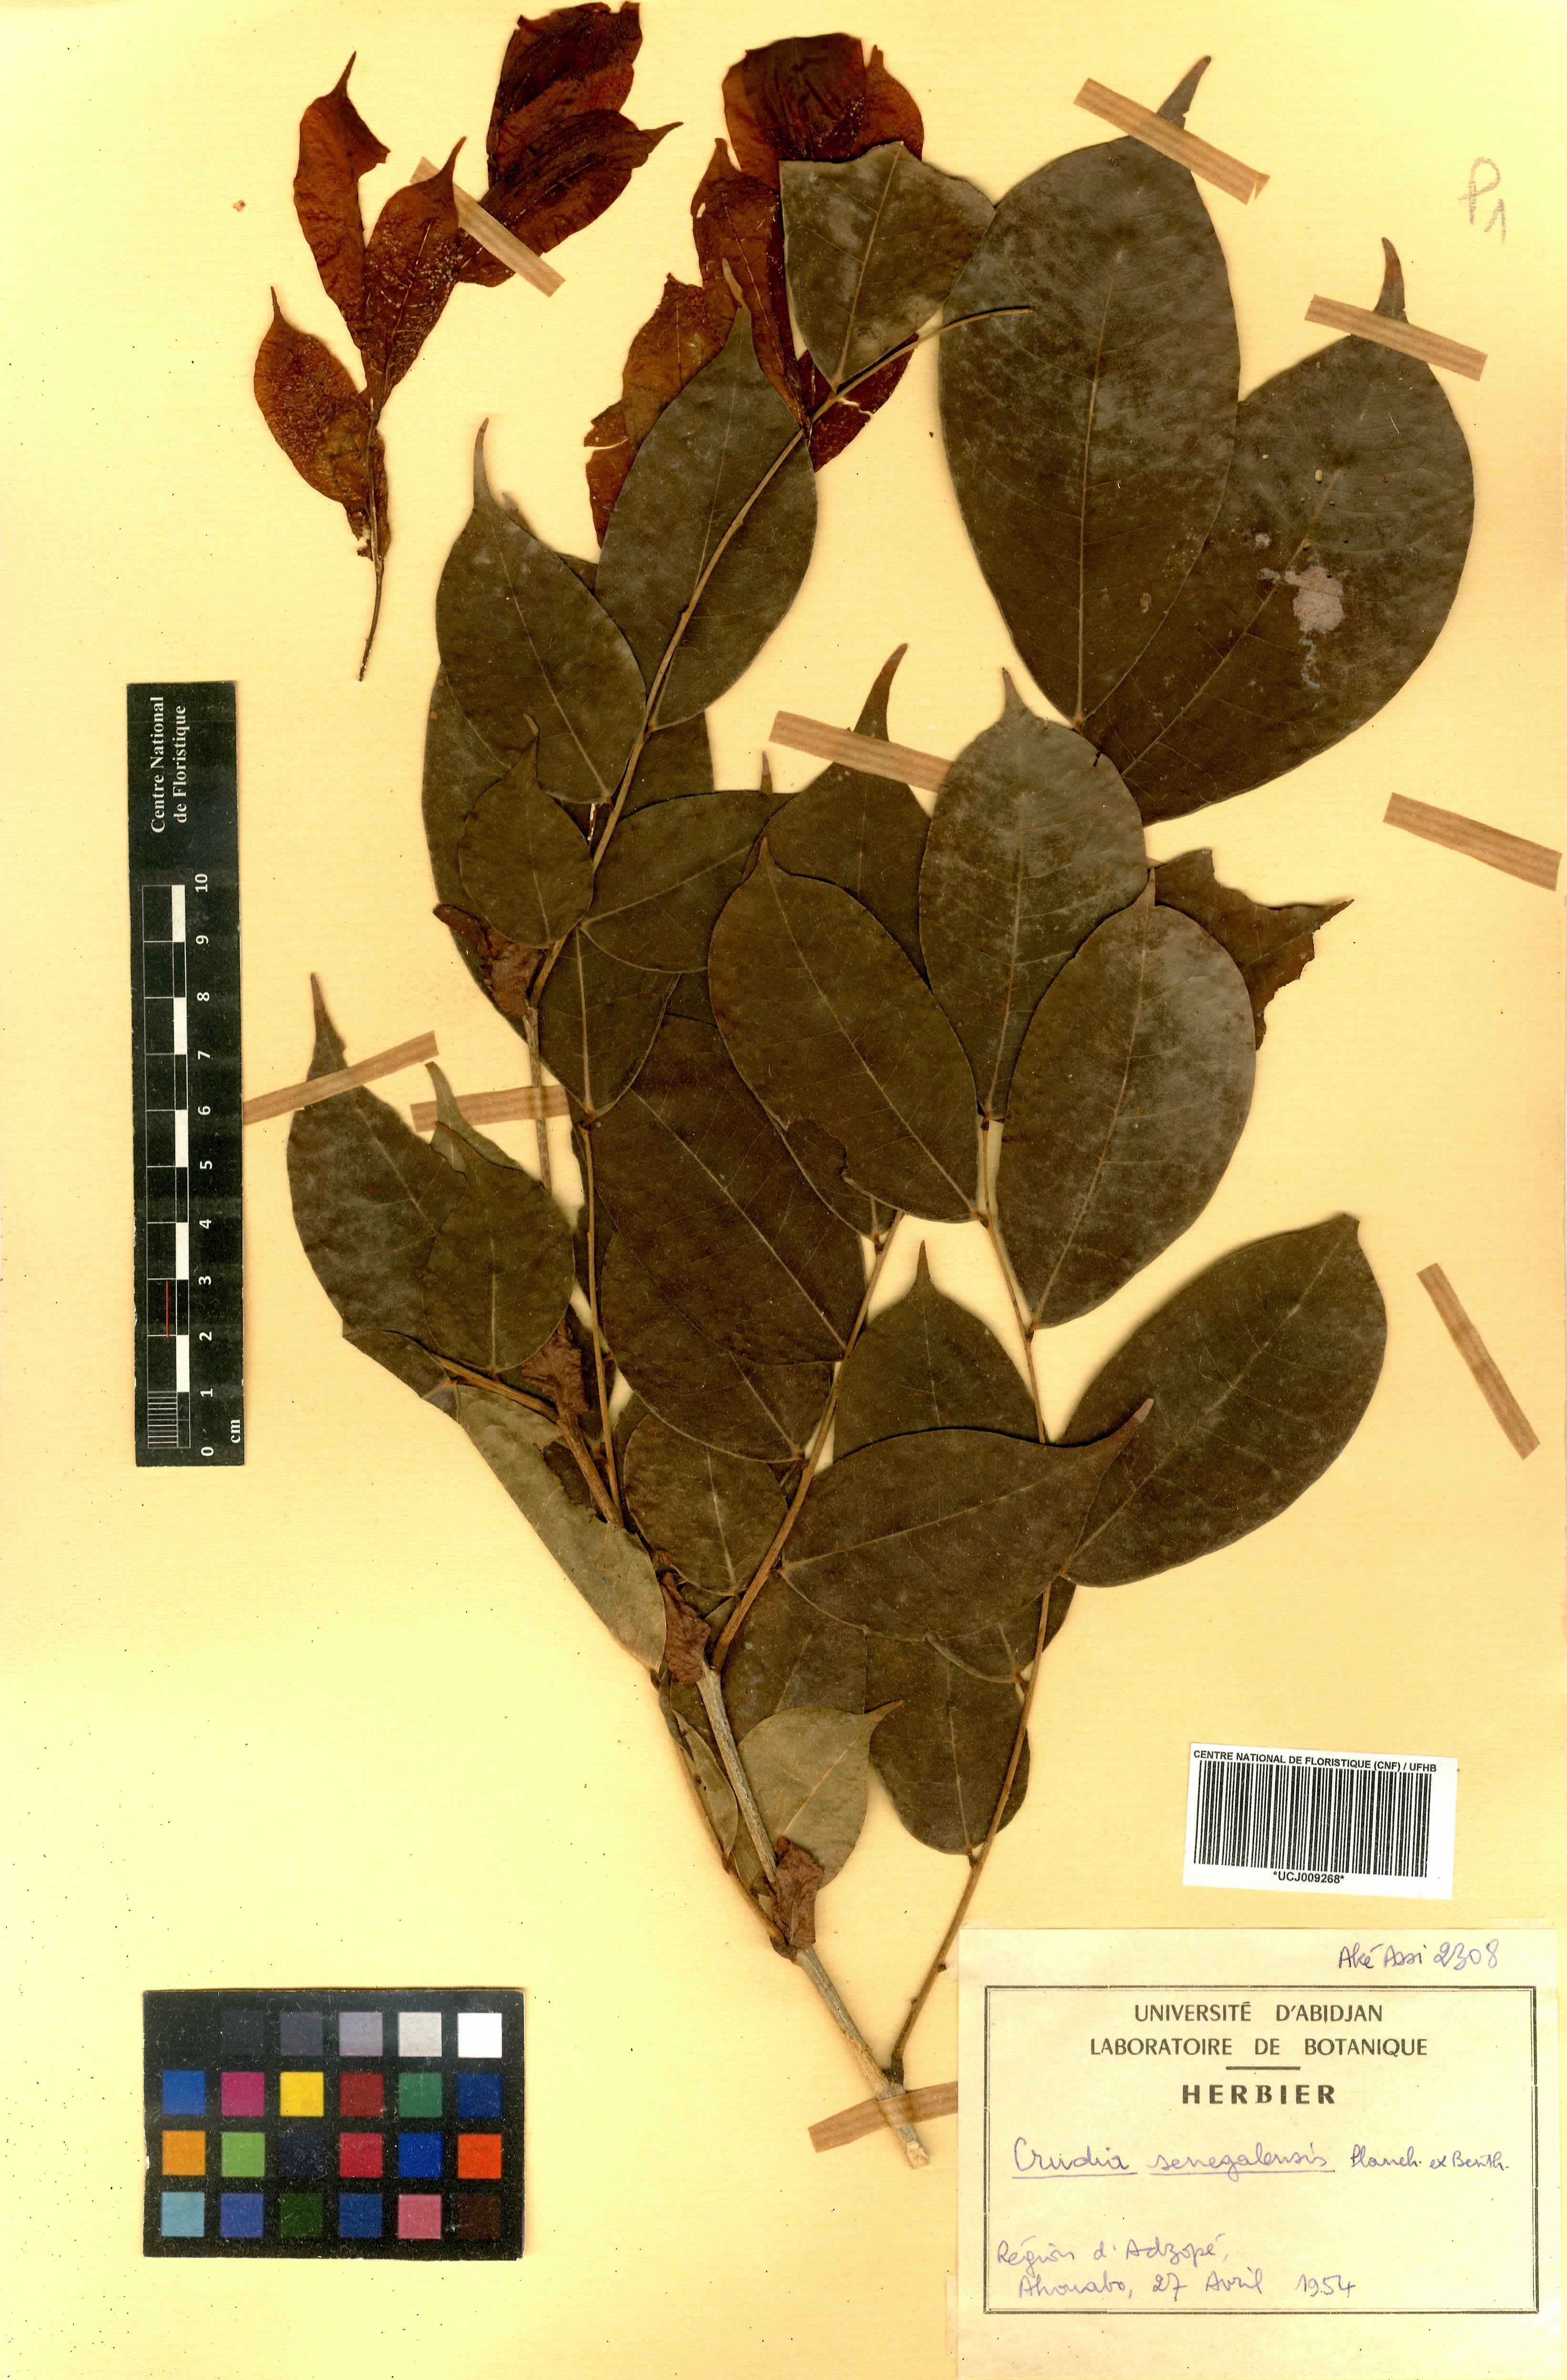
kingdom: Plantae
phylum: Tracheophyta
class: Magnoliopsida
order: Fabales
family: Fabaceae
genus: Crudia
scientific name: Crudia senegalensis
